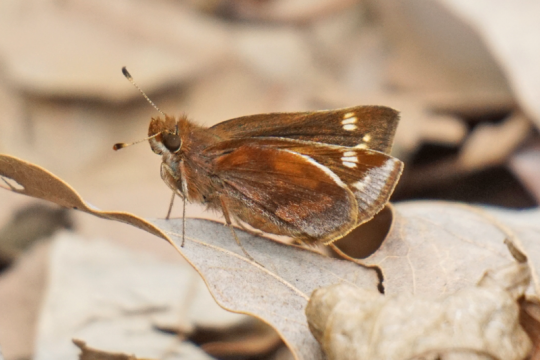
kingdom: Animalia
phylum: Arthropoda
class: Insecta
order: Lepidoptera
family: Hesperiidae
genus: Lon
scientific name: Lon zabulon
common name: Zabulon Skipper
